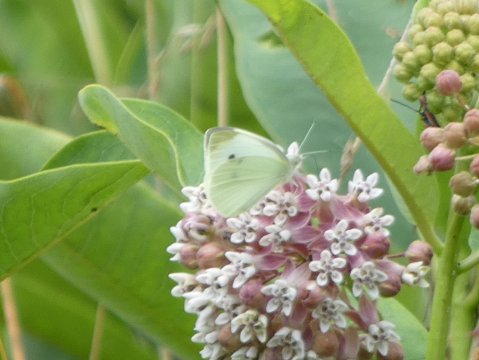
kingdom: Animalia
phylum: Arthropoda
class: Insecta
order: Lepidoptera
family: Pieridae
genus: Pieris
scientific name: Pieris rapae
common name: Cabbage White
